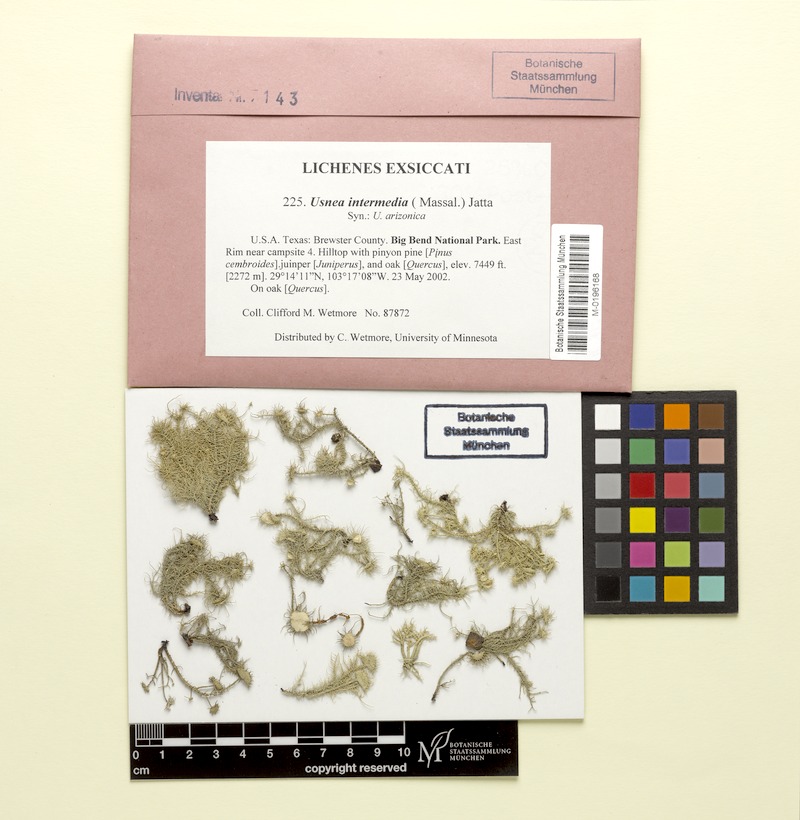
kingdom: Fungi
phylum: Ascomycota
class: Lecanoromycetes
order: Lecanorales
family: Parmeliaceae
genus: Usnea
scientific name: Usnea intermedia
